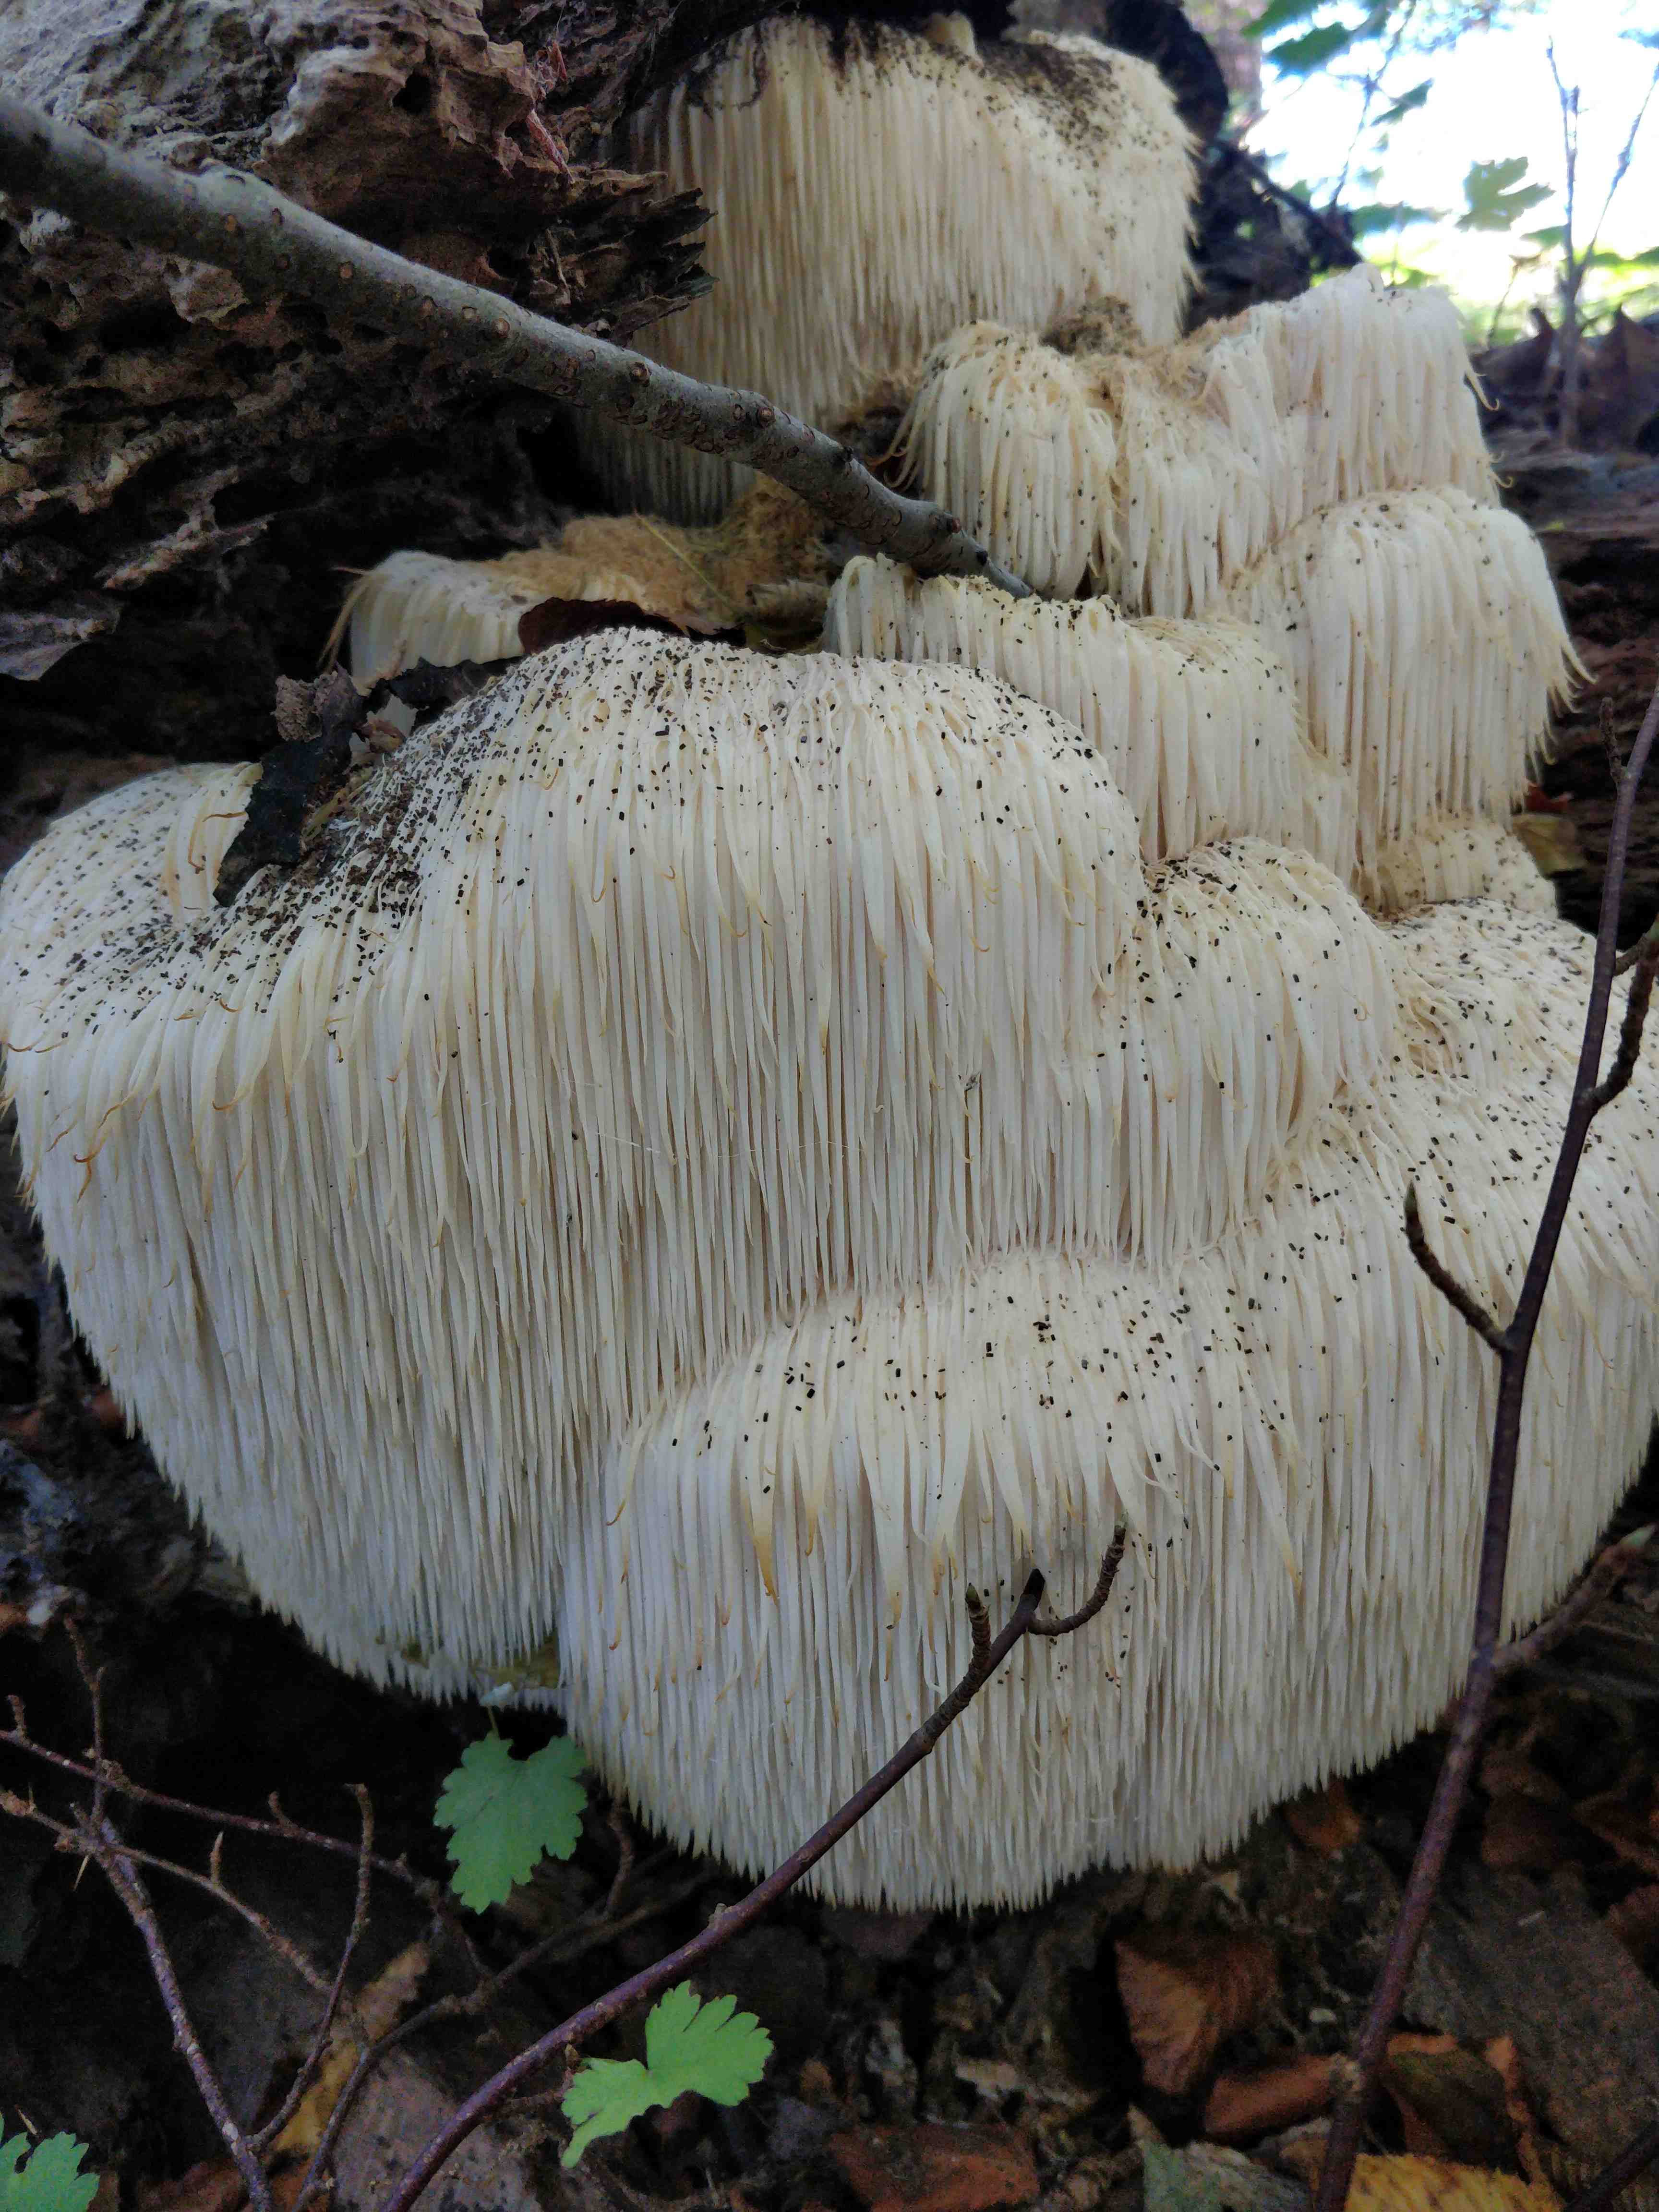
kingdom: Fungi
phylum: Basidiomycota
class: Agaricomycetes
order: Russulales
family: Hericiaceae
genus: Hericium
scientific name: Hericium erinaceus
